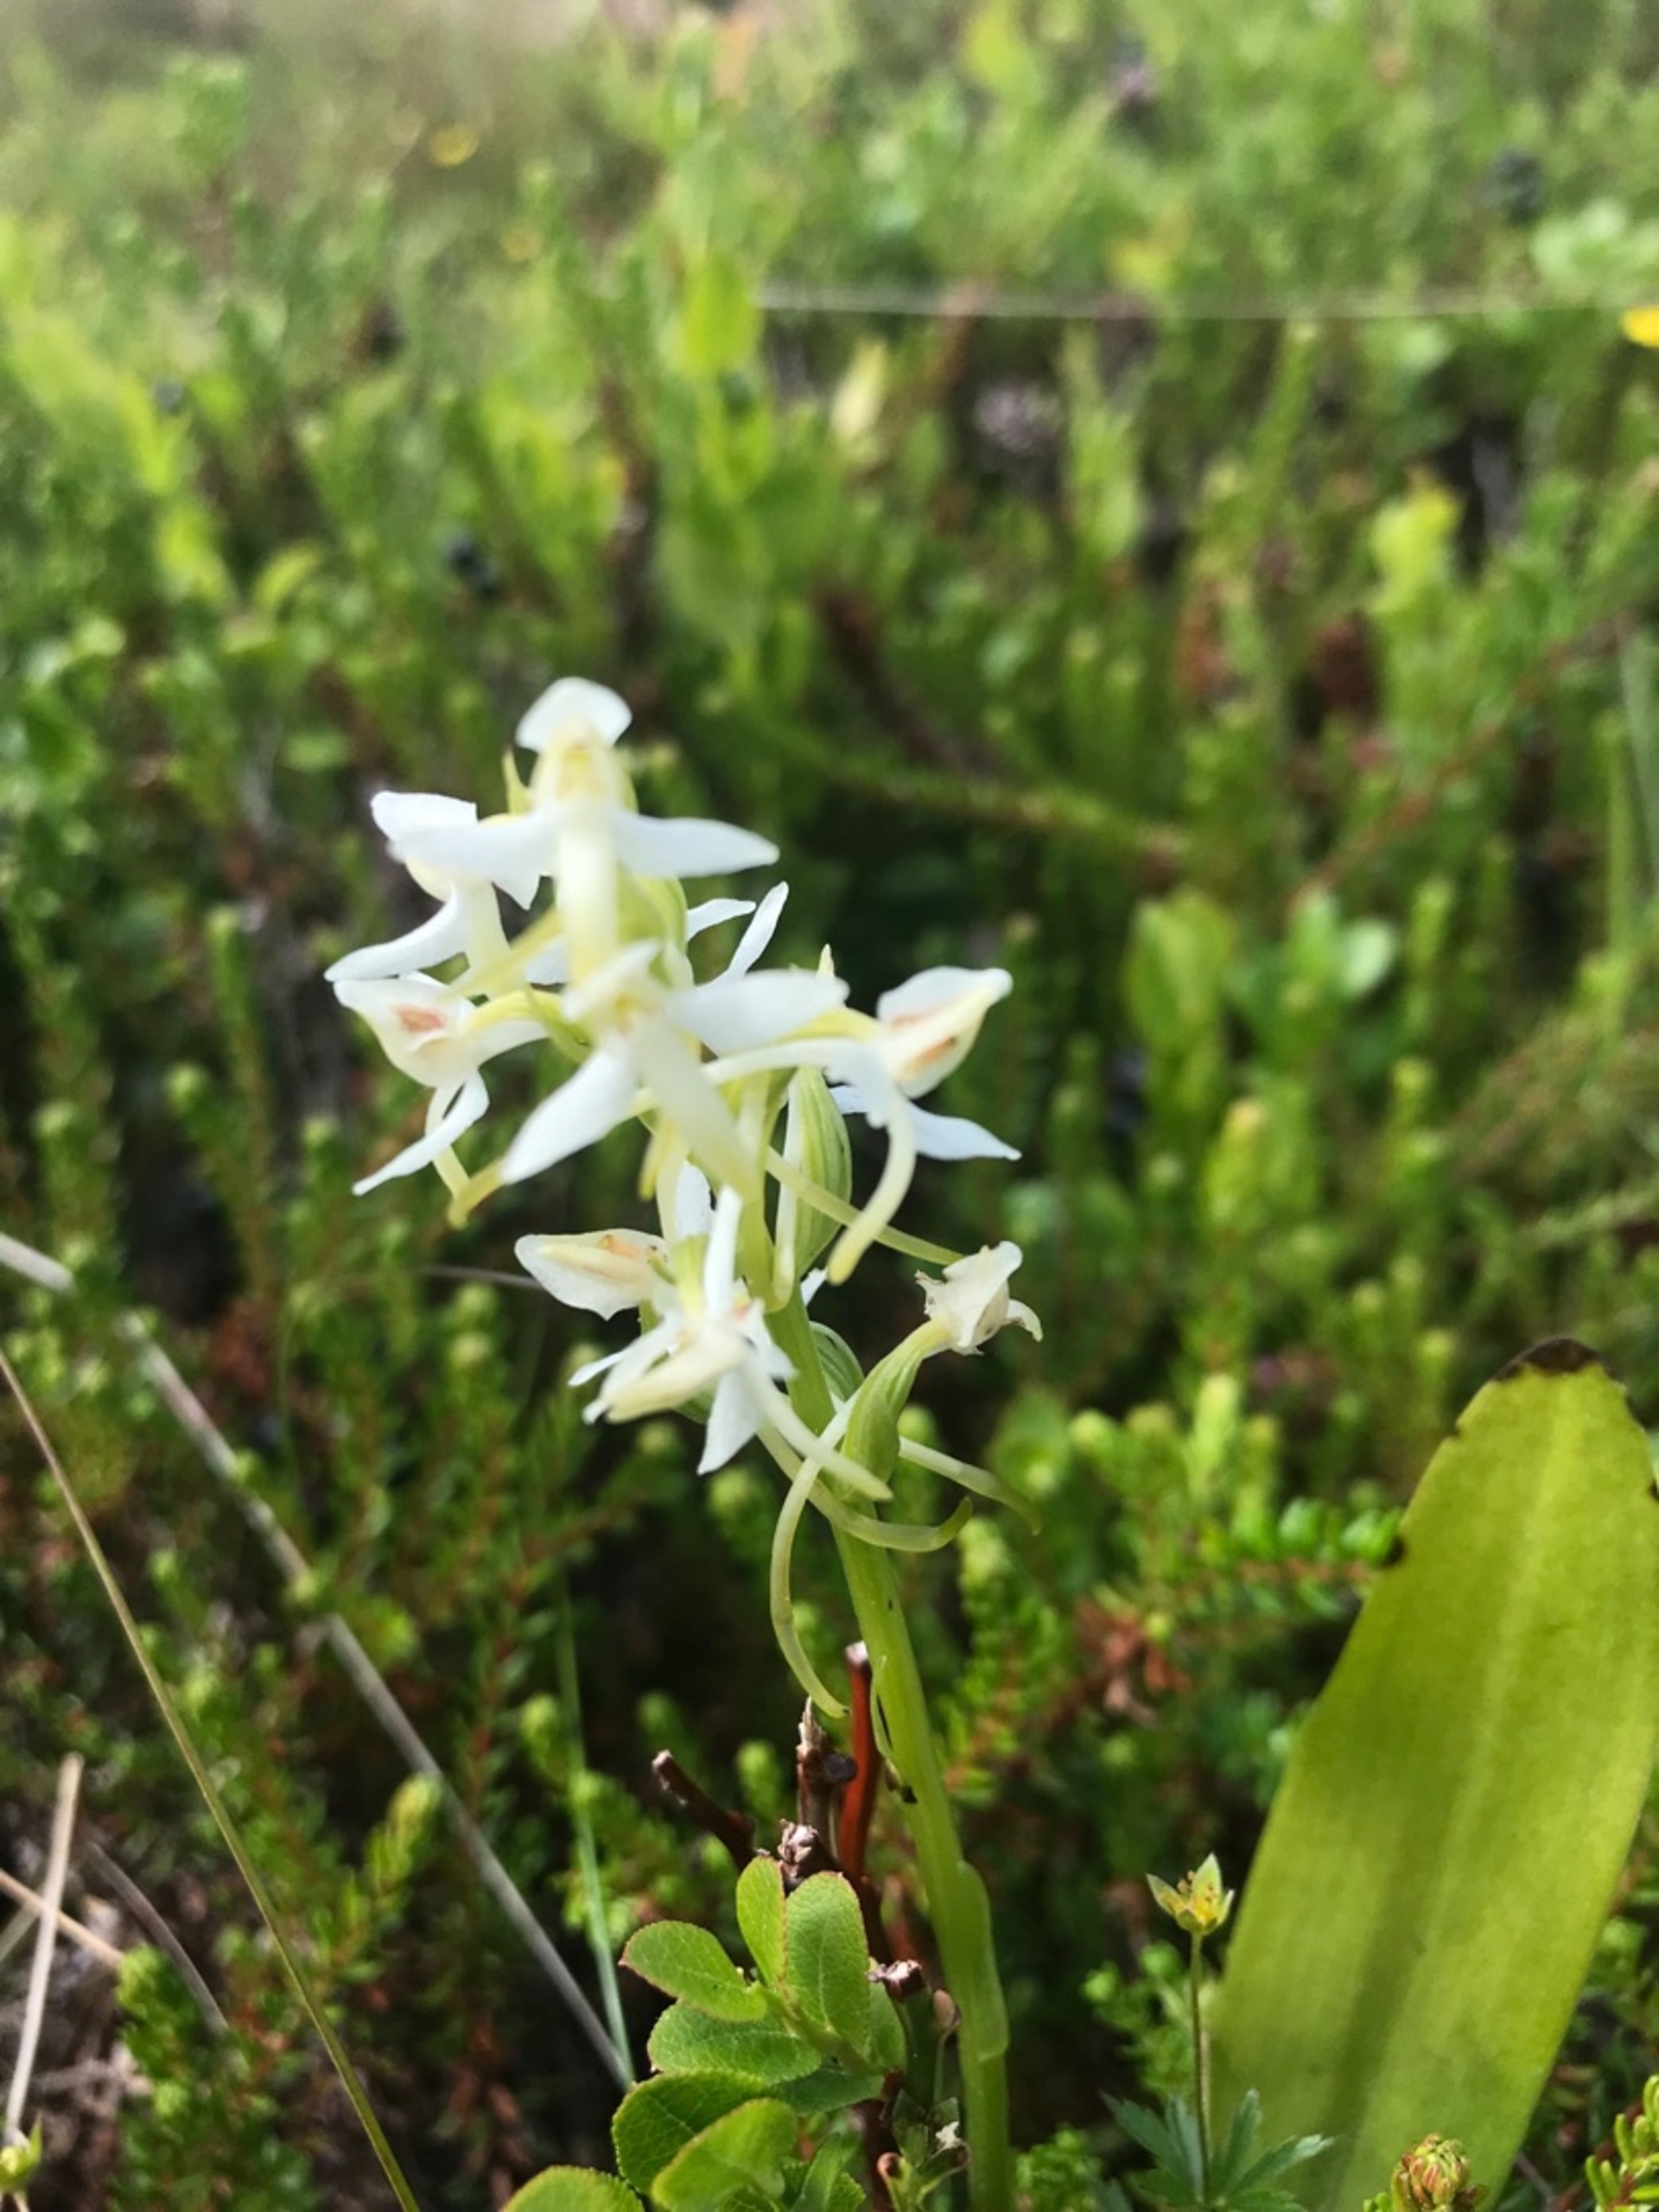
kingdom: Plantae
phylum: Tracheophyta
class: Liliopsida
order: Asparagales
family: Orchidaceae
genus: Platanthera
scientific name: Platanthera bifolia
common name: Bakke-gøgelilje
